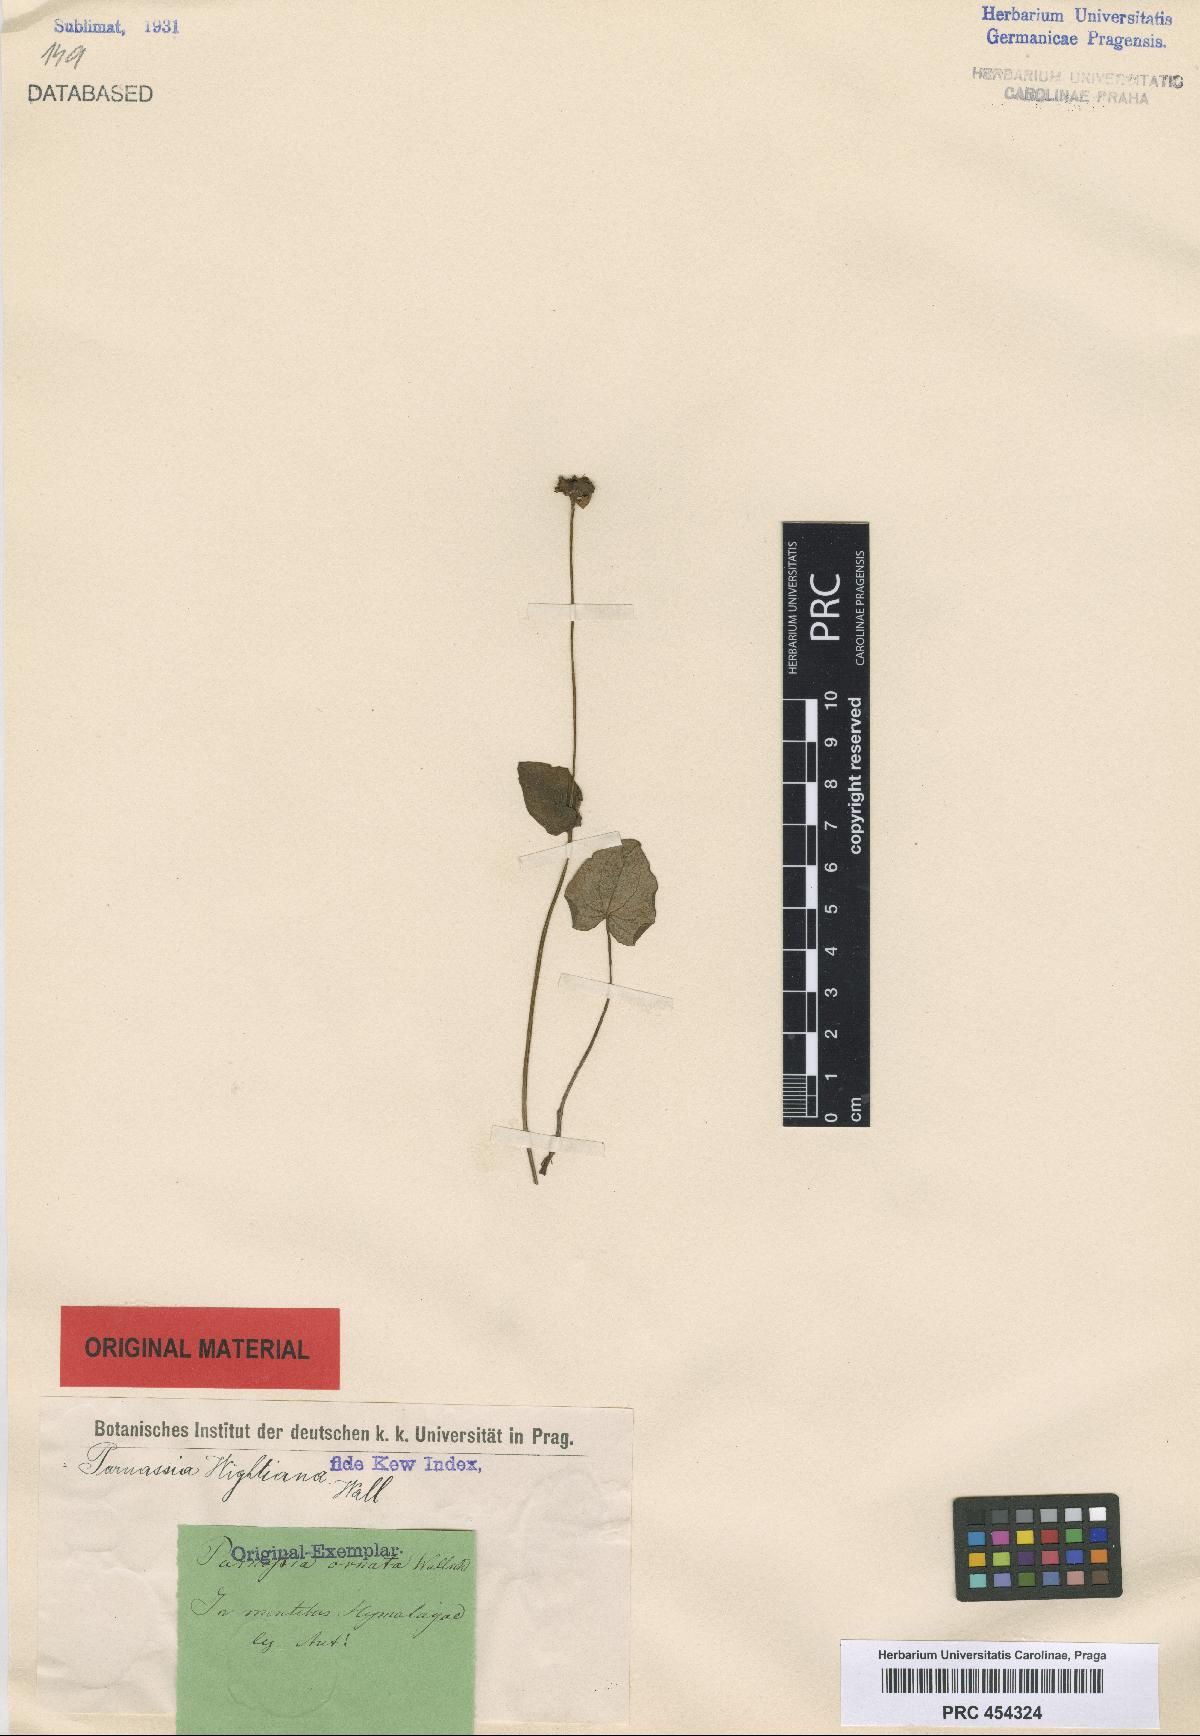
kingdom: Plantae
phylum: Tracheophyta
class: Magnoliopsida
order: Celastrales
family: Parnassiaceae
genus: Parnassia
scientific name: Parnassia wightiana
